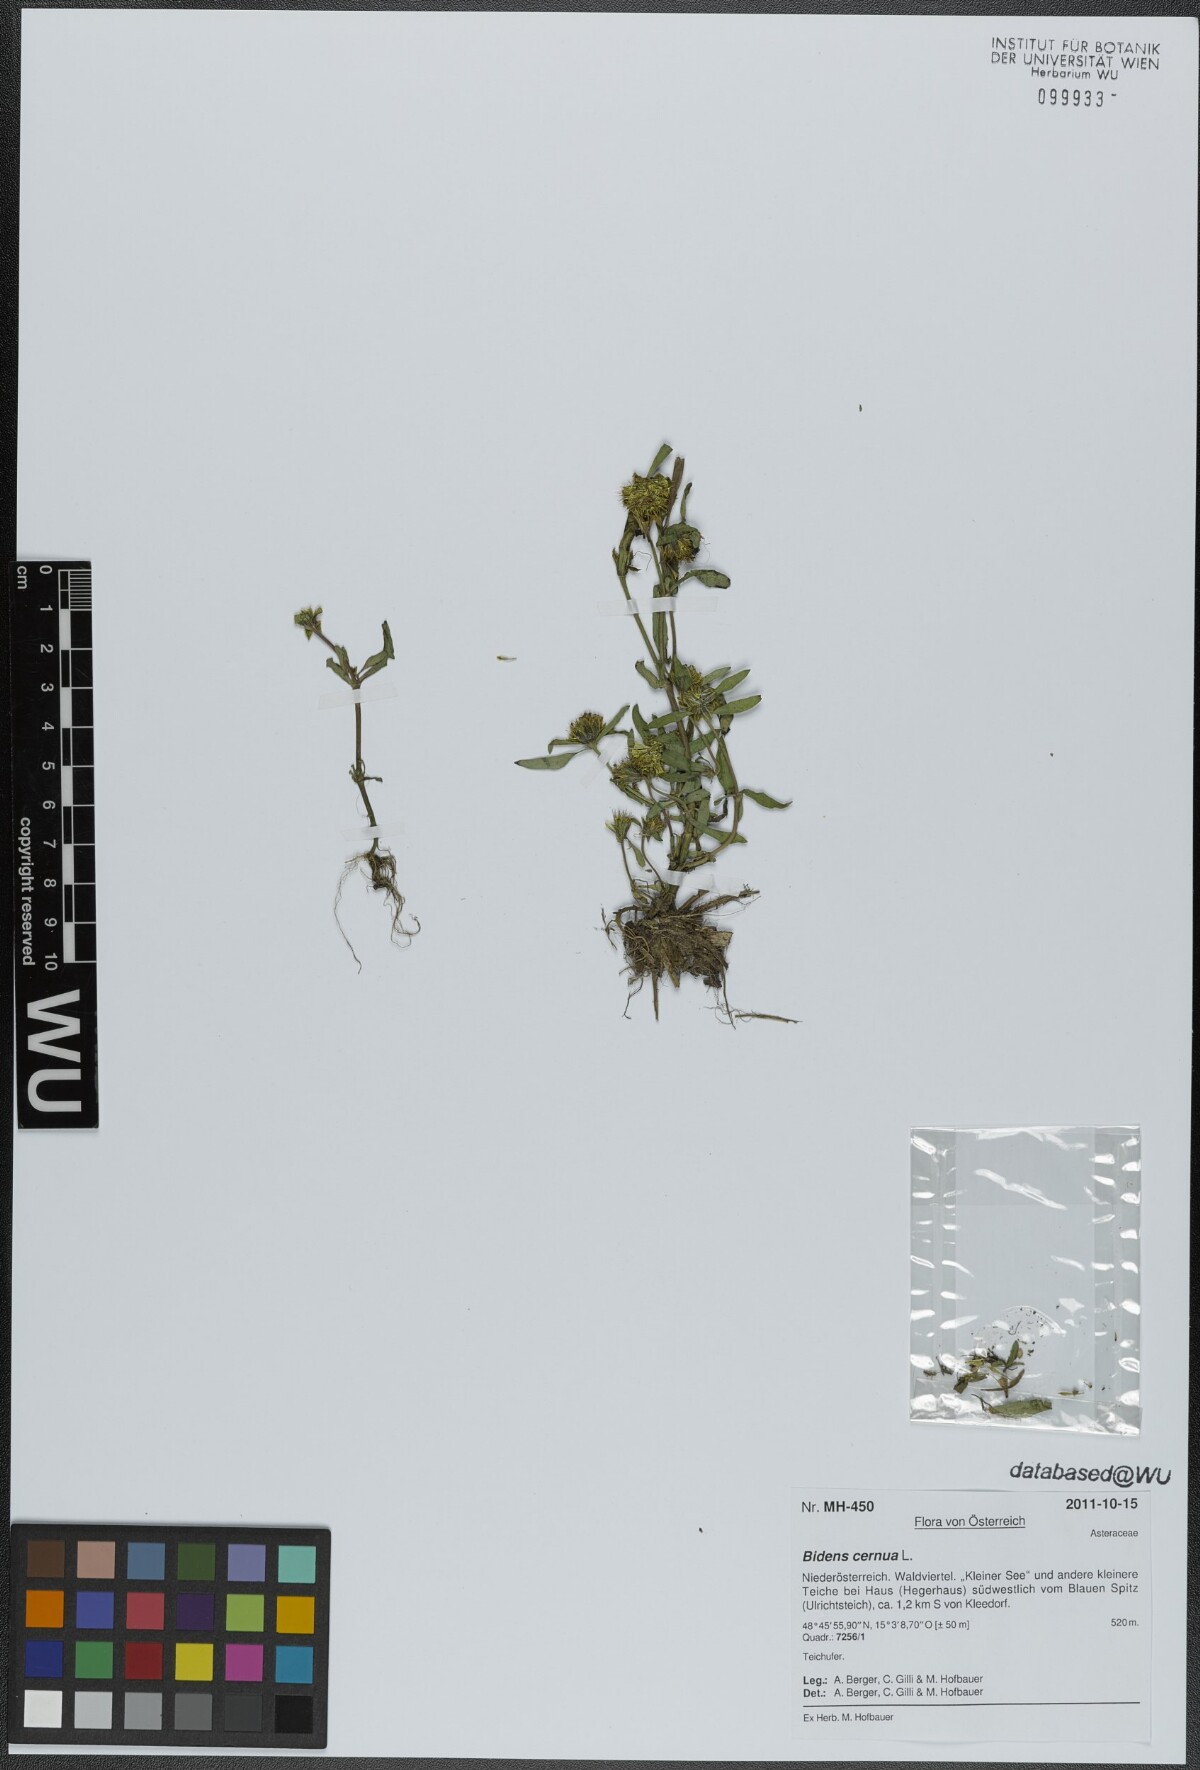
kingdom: Plantae
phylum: Tracheophyta
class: Magnoliopsida
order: Asterales
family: Asteraceae
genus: Bidens
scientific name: Bidens cernua
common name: Nodding bur-marigold
